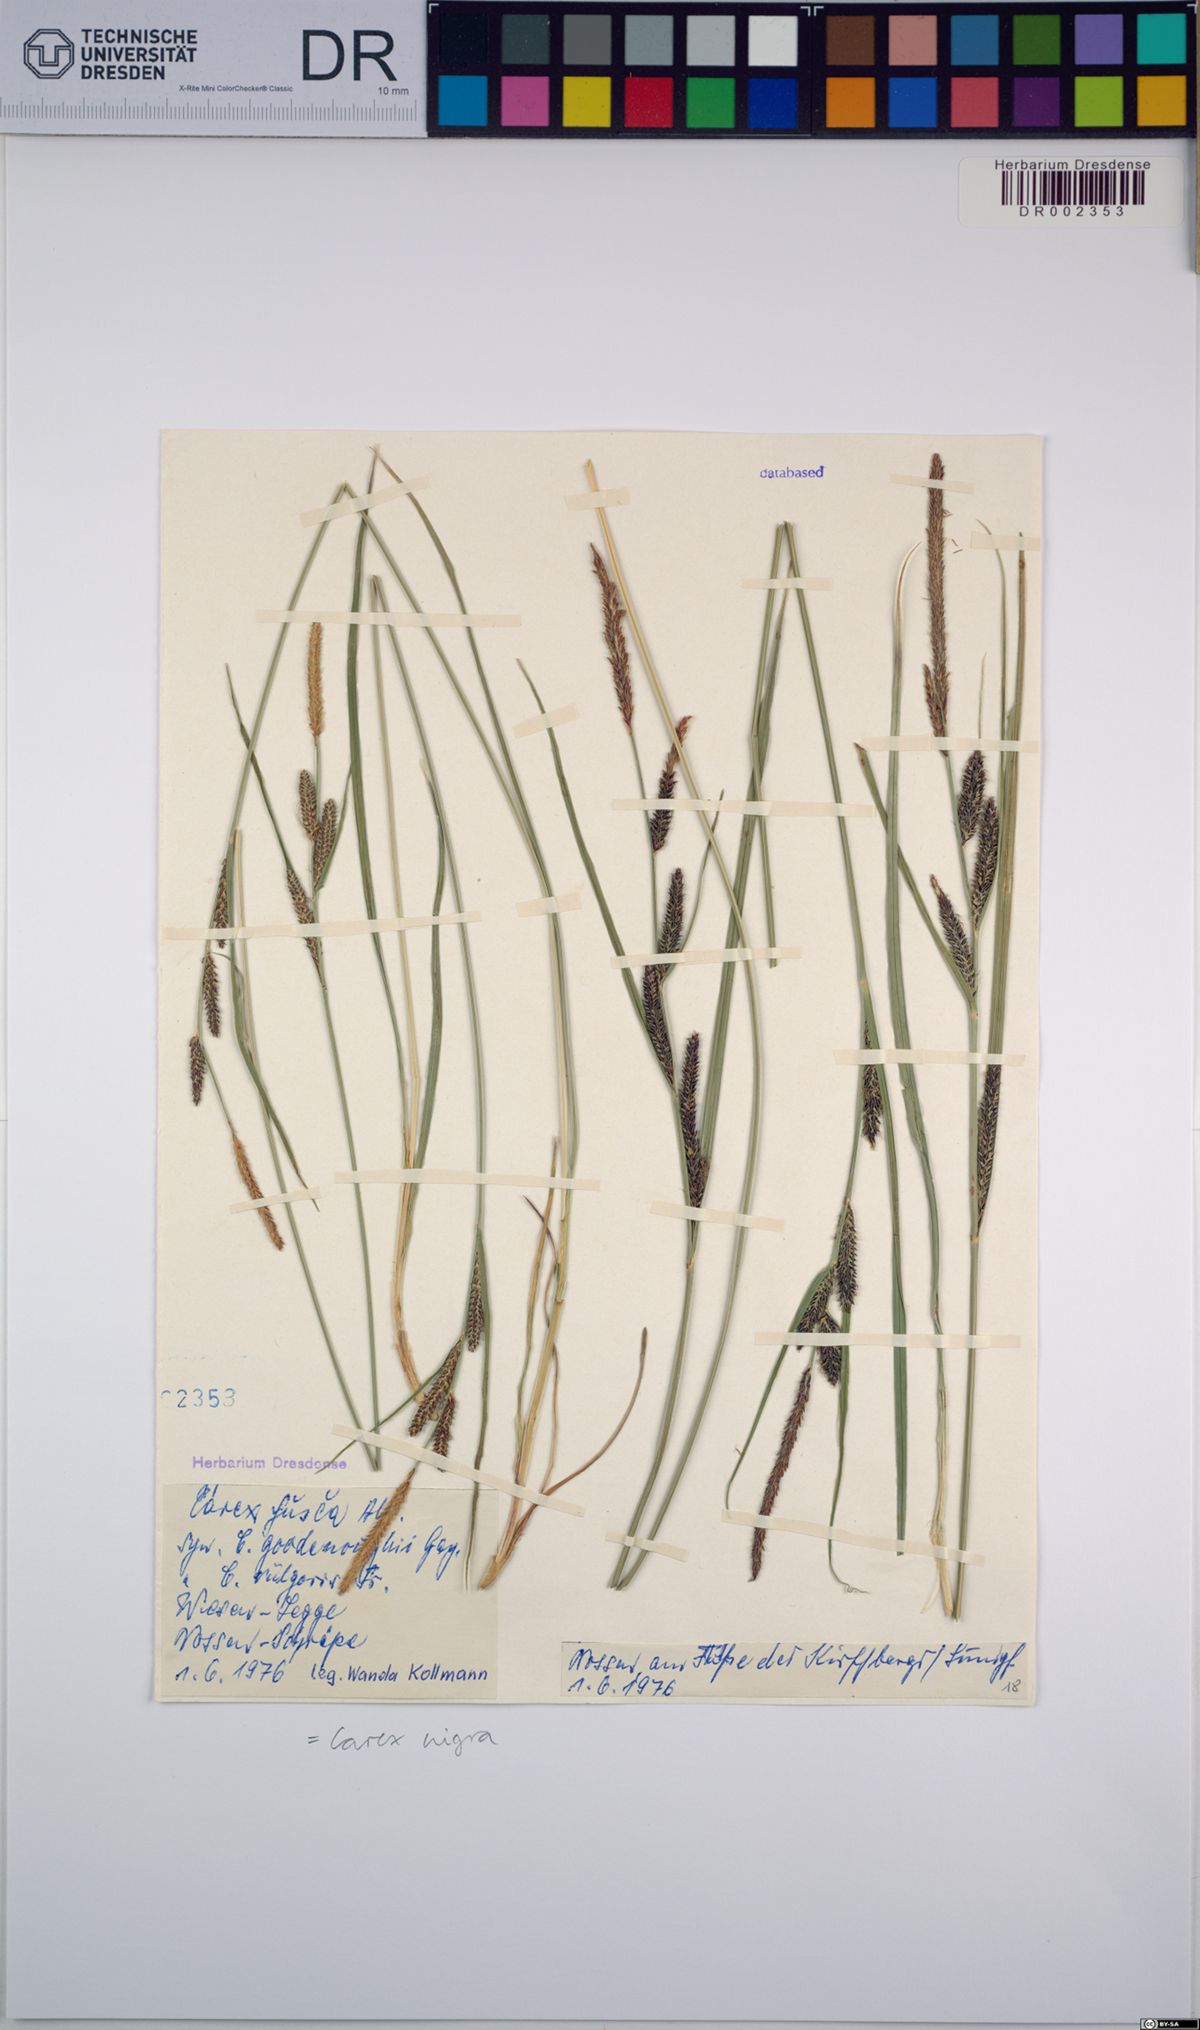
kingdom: Plantae
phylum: Tracheophyta
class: Liliopsida
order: Poales
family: Cyperaceae
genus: Carex
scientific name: Carex nigra
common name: Common sedge
